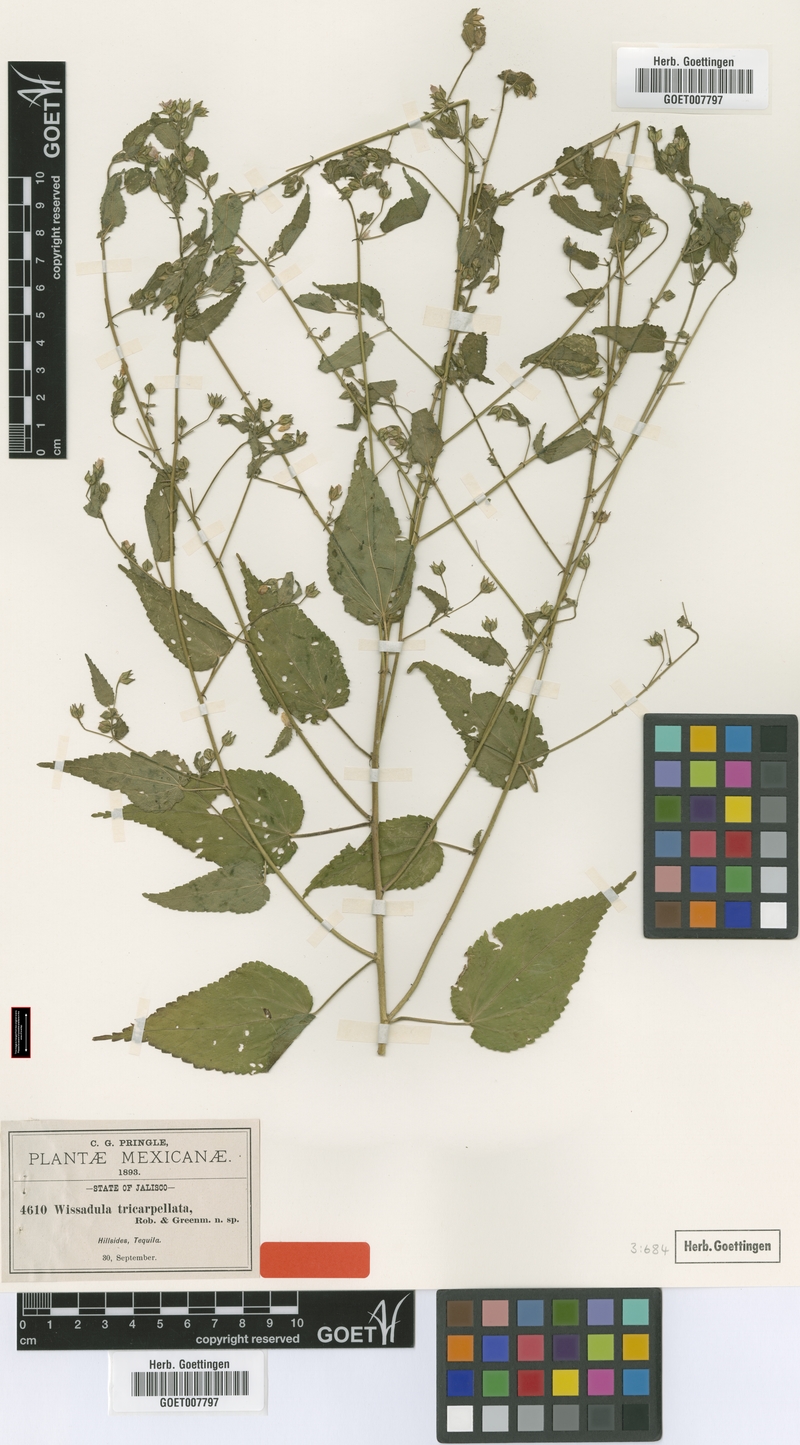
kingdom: Plantae
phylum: Tracheophyta
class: Magnoliopsida
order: Malvales
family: Malvaceae
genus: Bastardiastrum
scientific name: Bastardiastrum tricarpellatum
